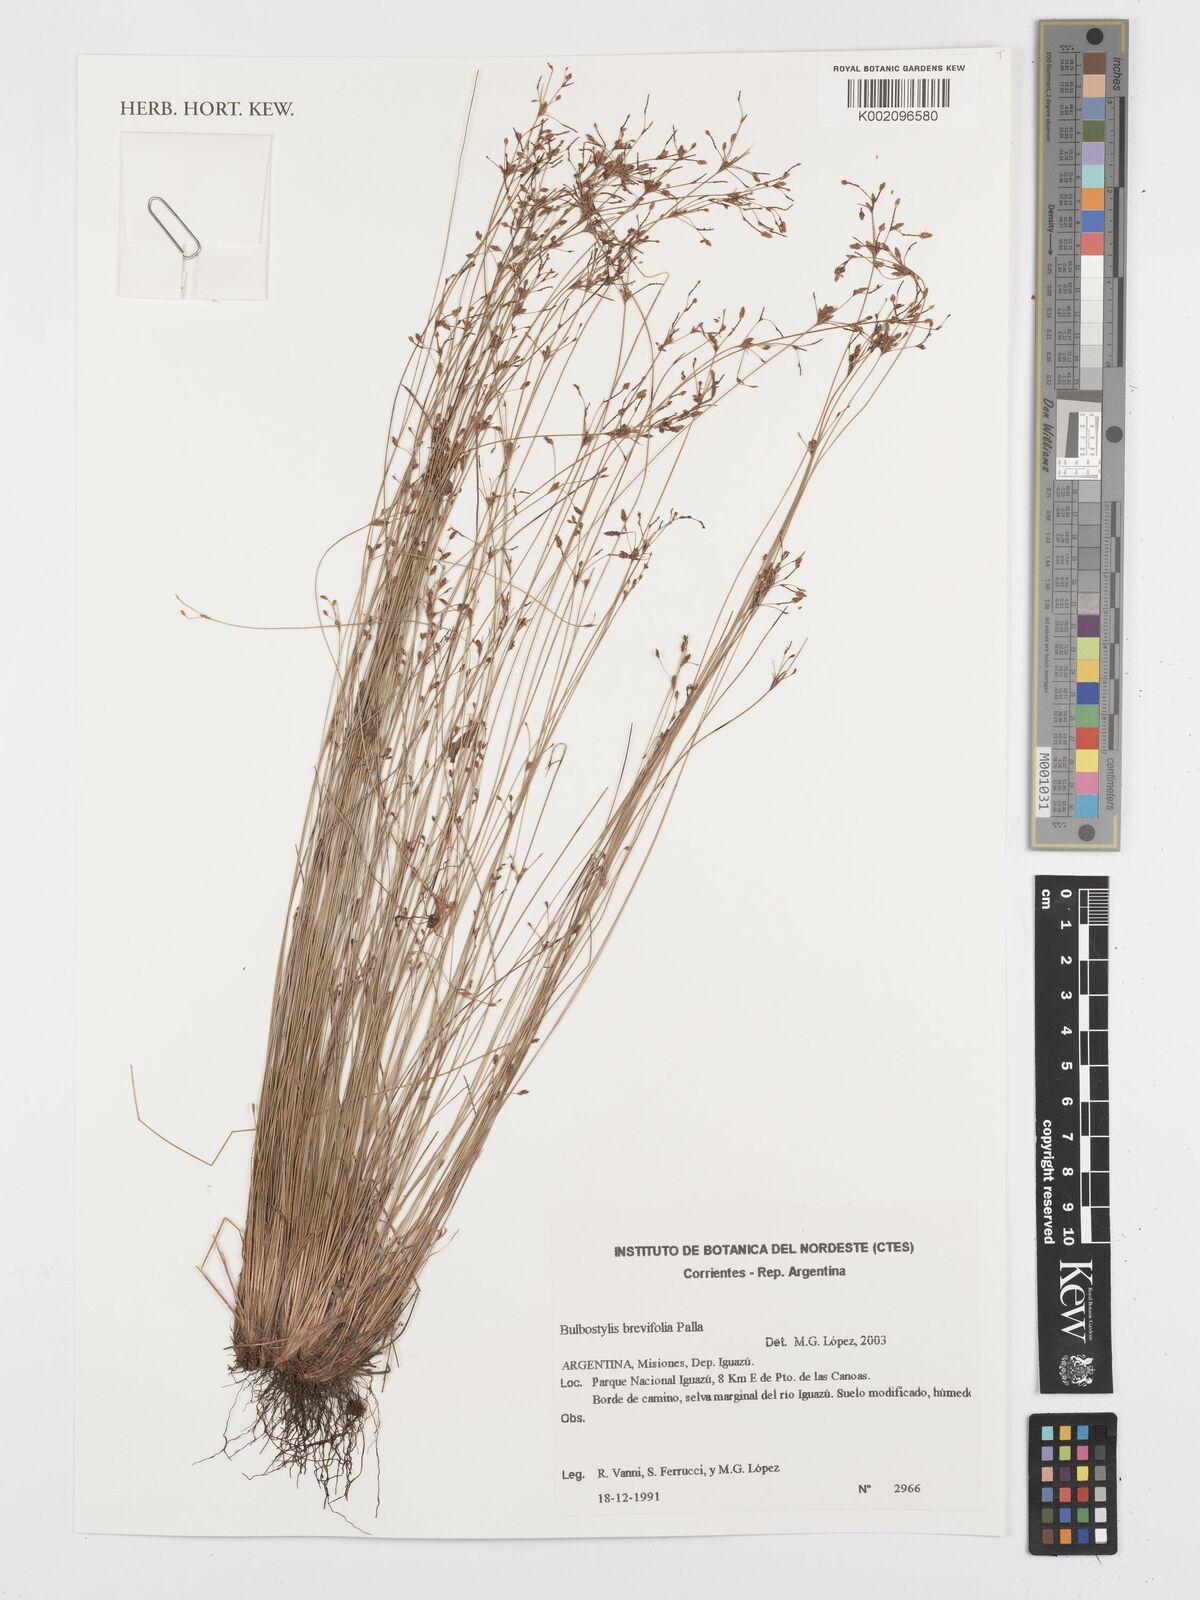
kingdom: Plantae
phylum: Tracheophyta
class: Liliopsida
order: Poales
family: Cyperaceae
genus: Bulbostylis
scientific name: Bulbostylis brevifolia
